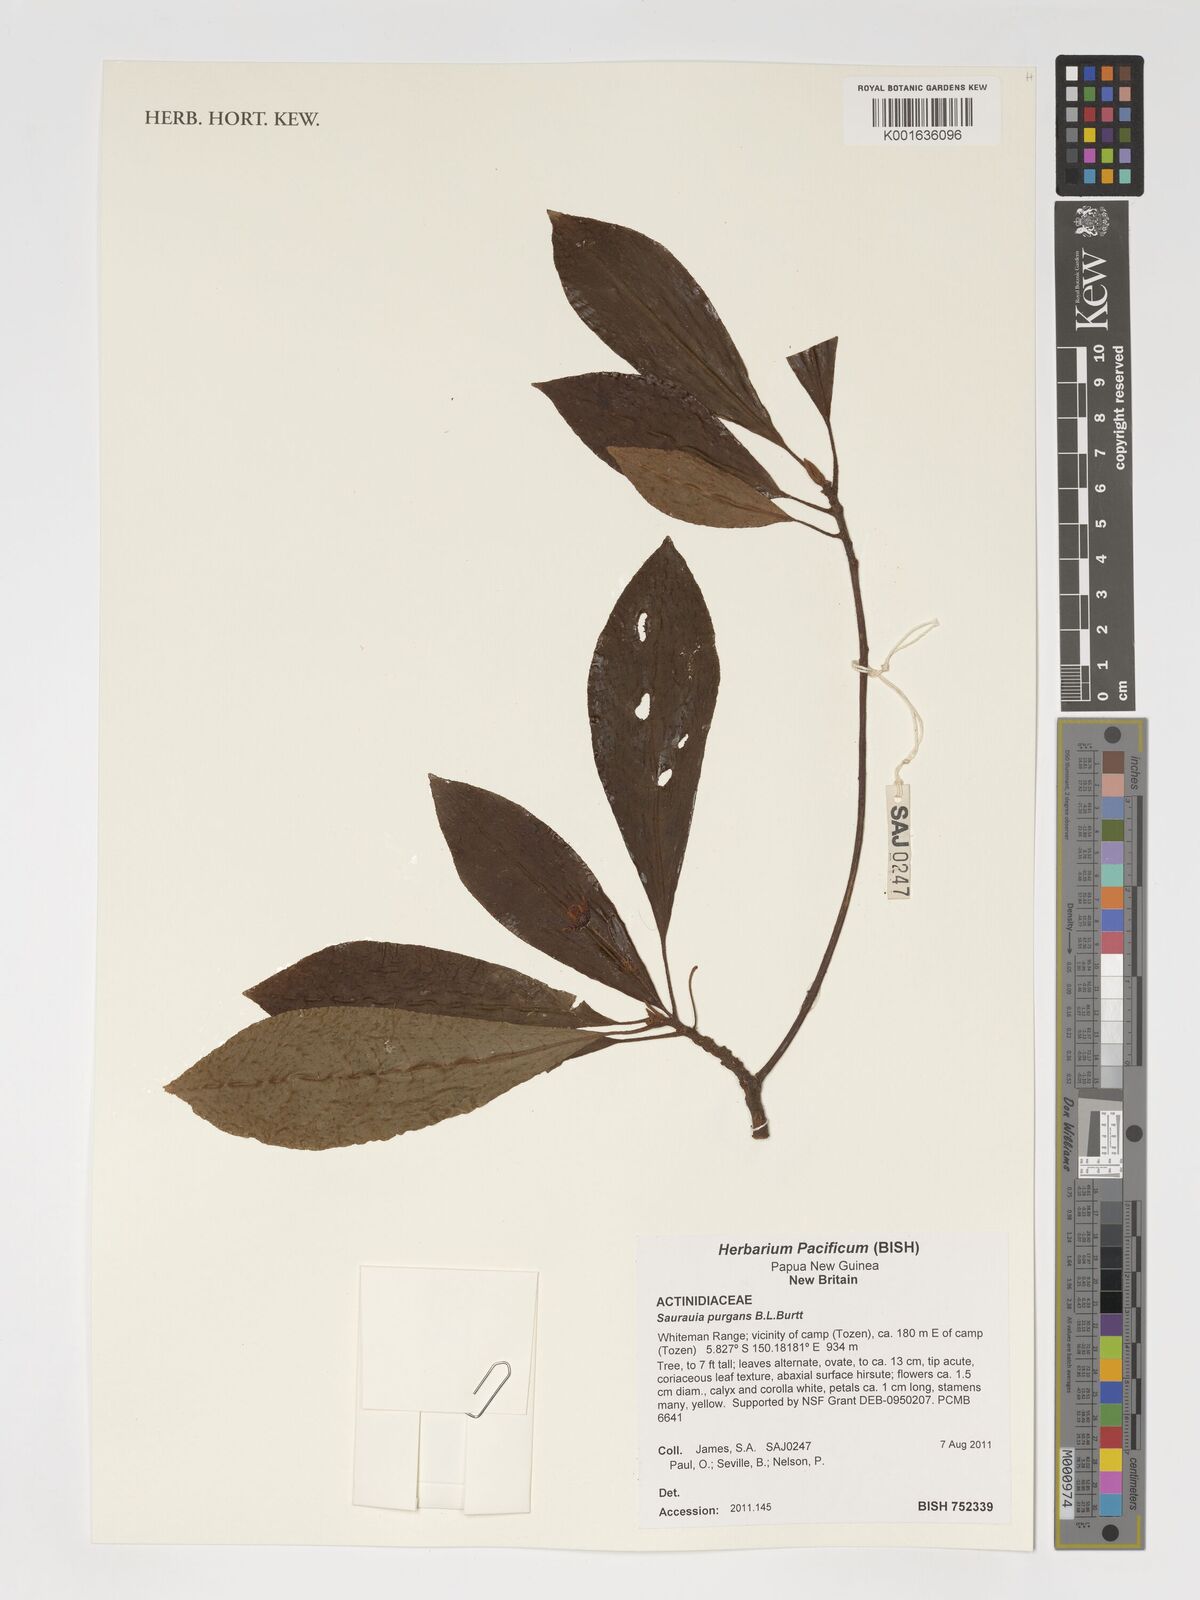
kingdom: Plantae
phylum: Tracheophyta
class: Magnoliopsida
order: Ericales
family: Actinidiaceae
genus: Saurauia
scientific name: Saurauia purgans
